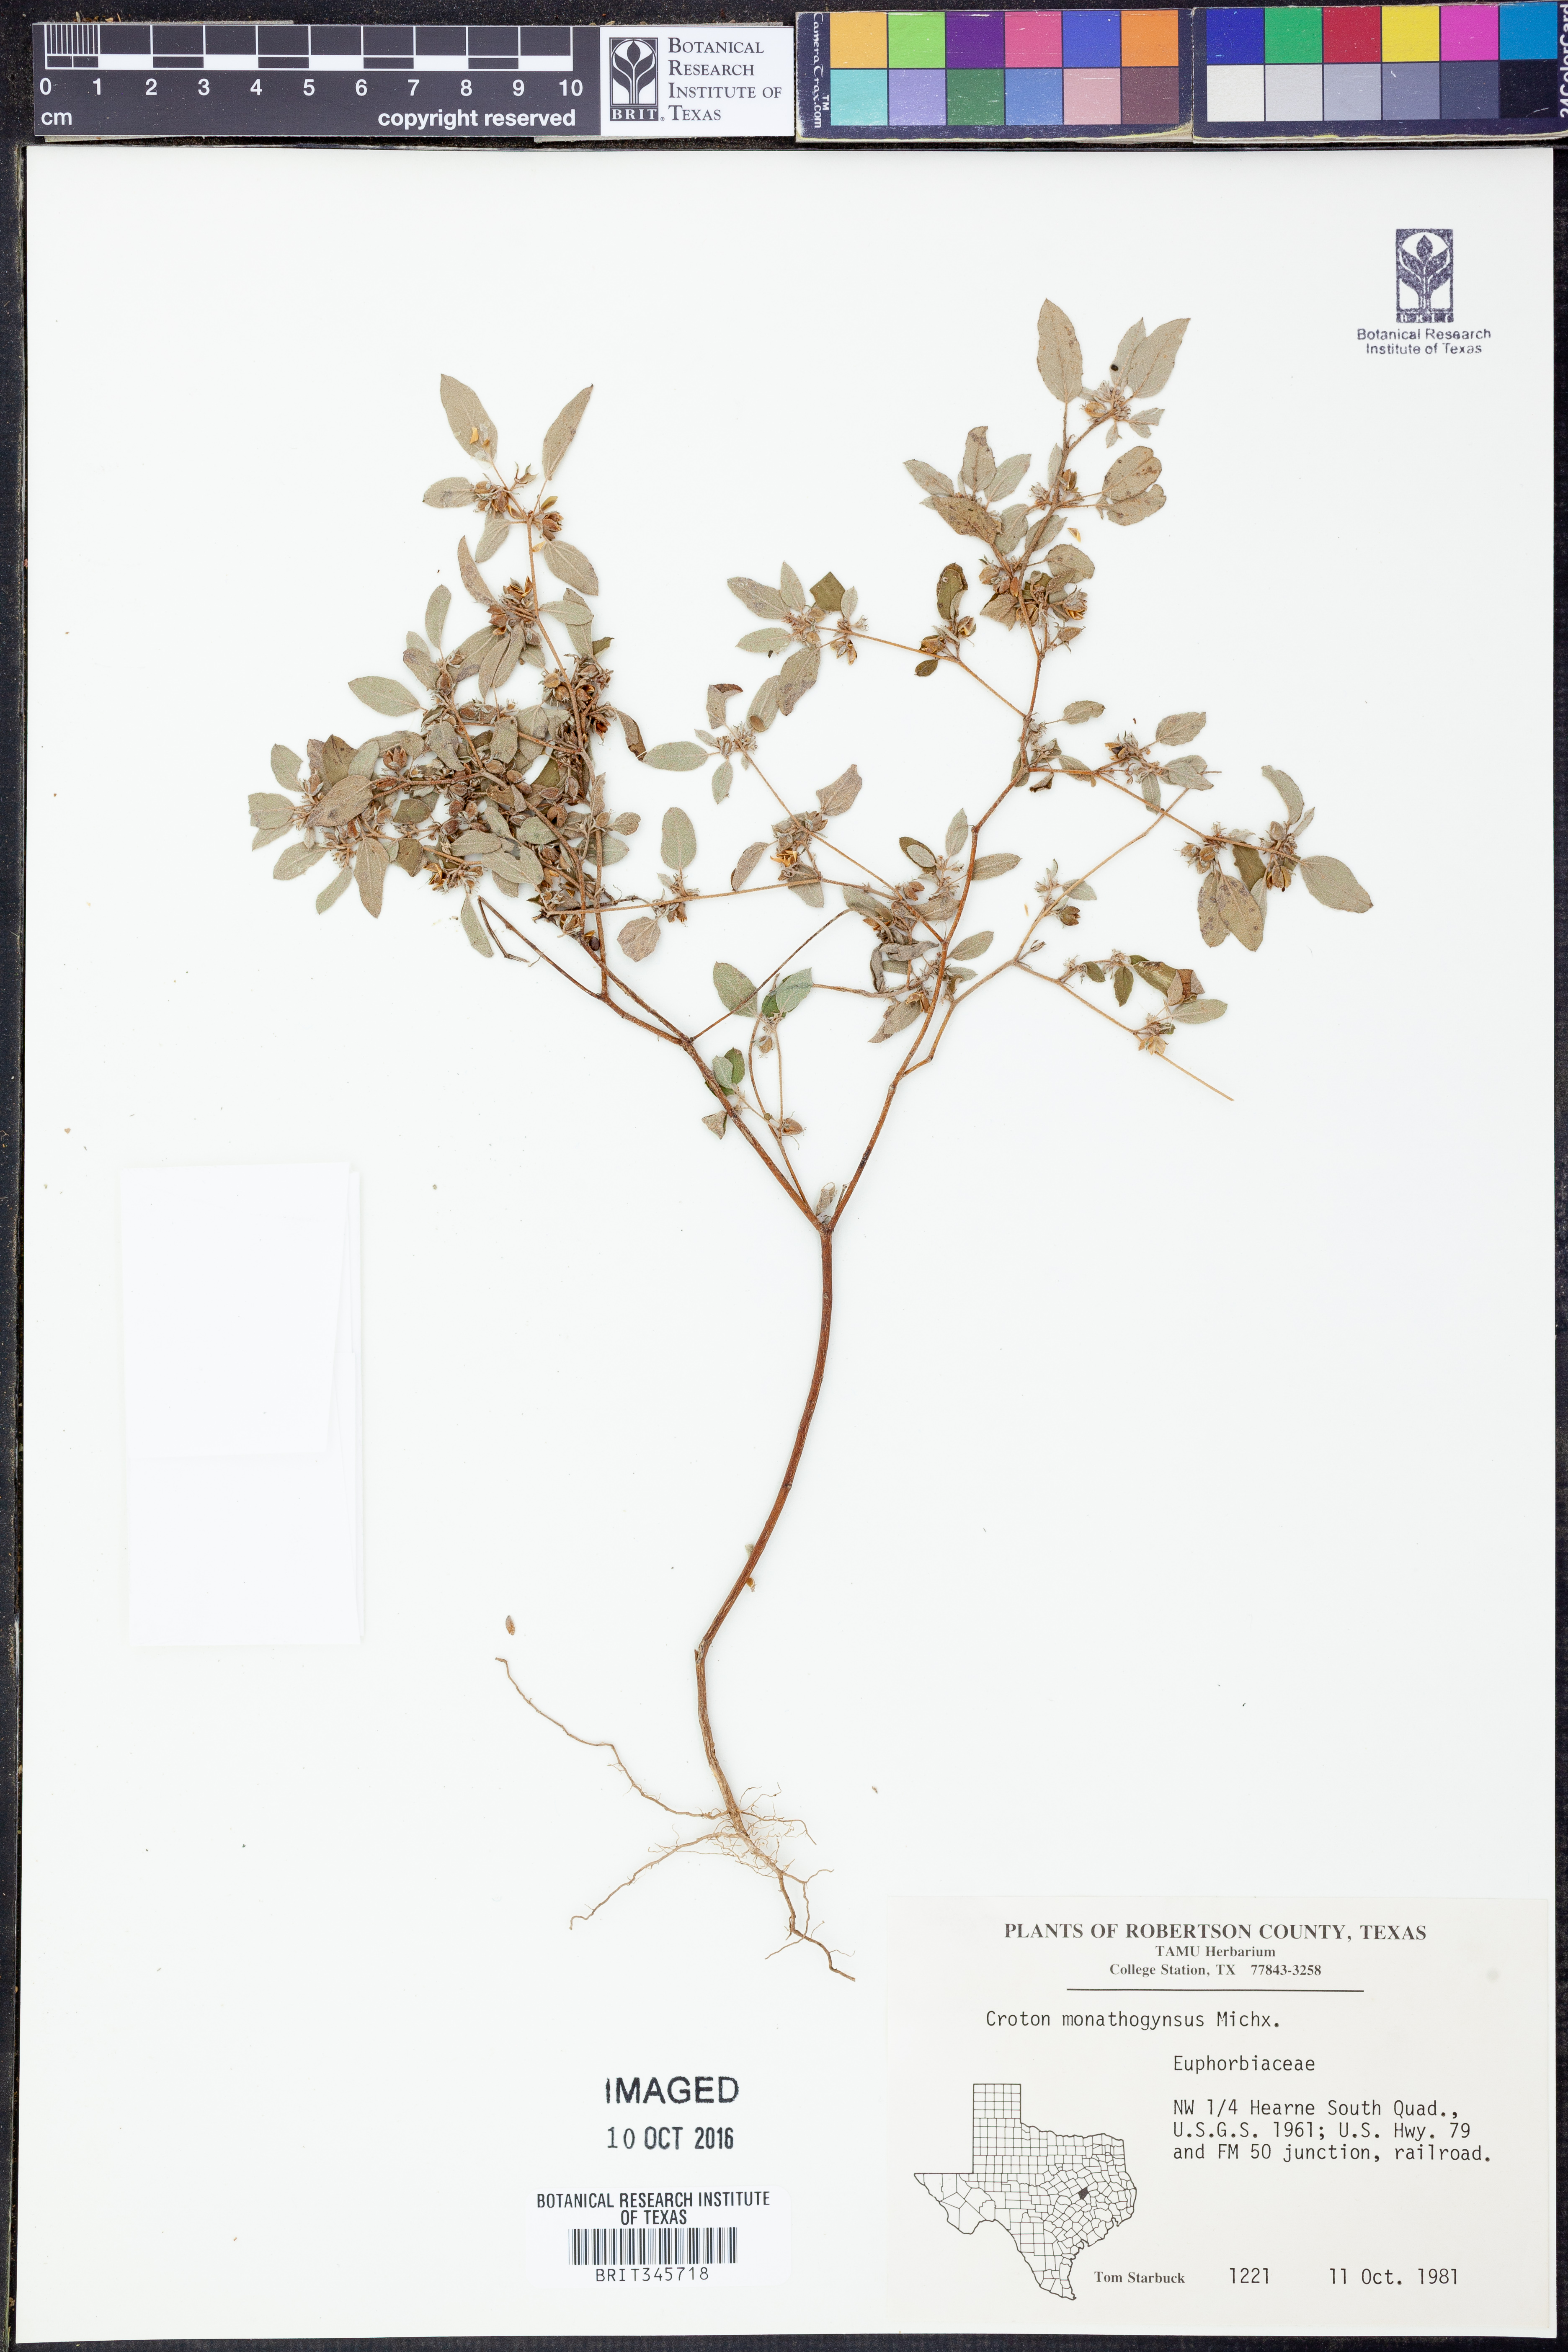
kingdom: Plantae
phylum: Tracheophyta
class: Magnoliopsida
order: Malpighiales
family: Euphorbiaceae
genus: Croton
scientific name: Croton monanthogynus
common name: One-seed croton
